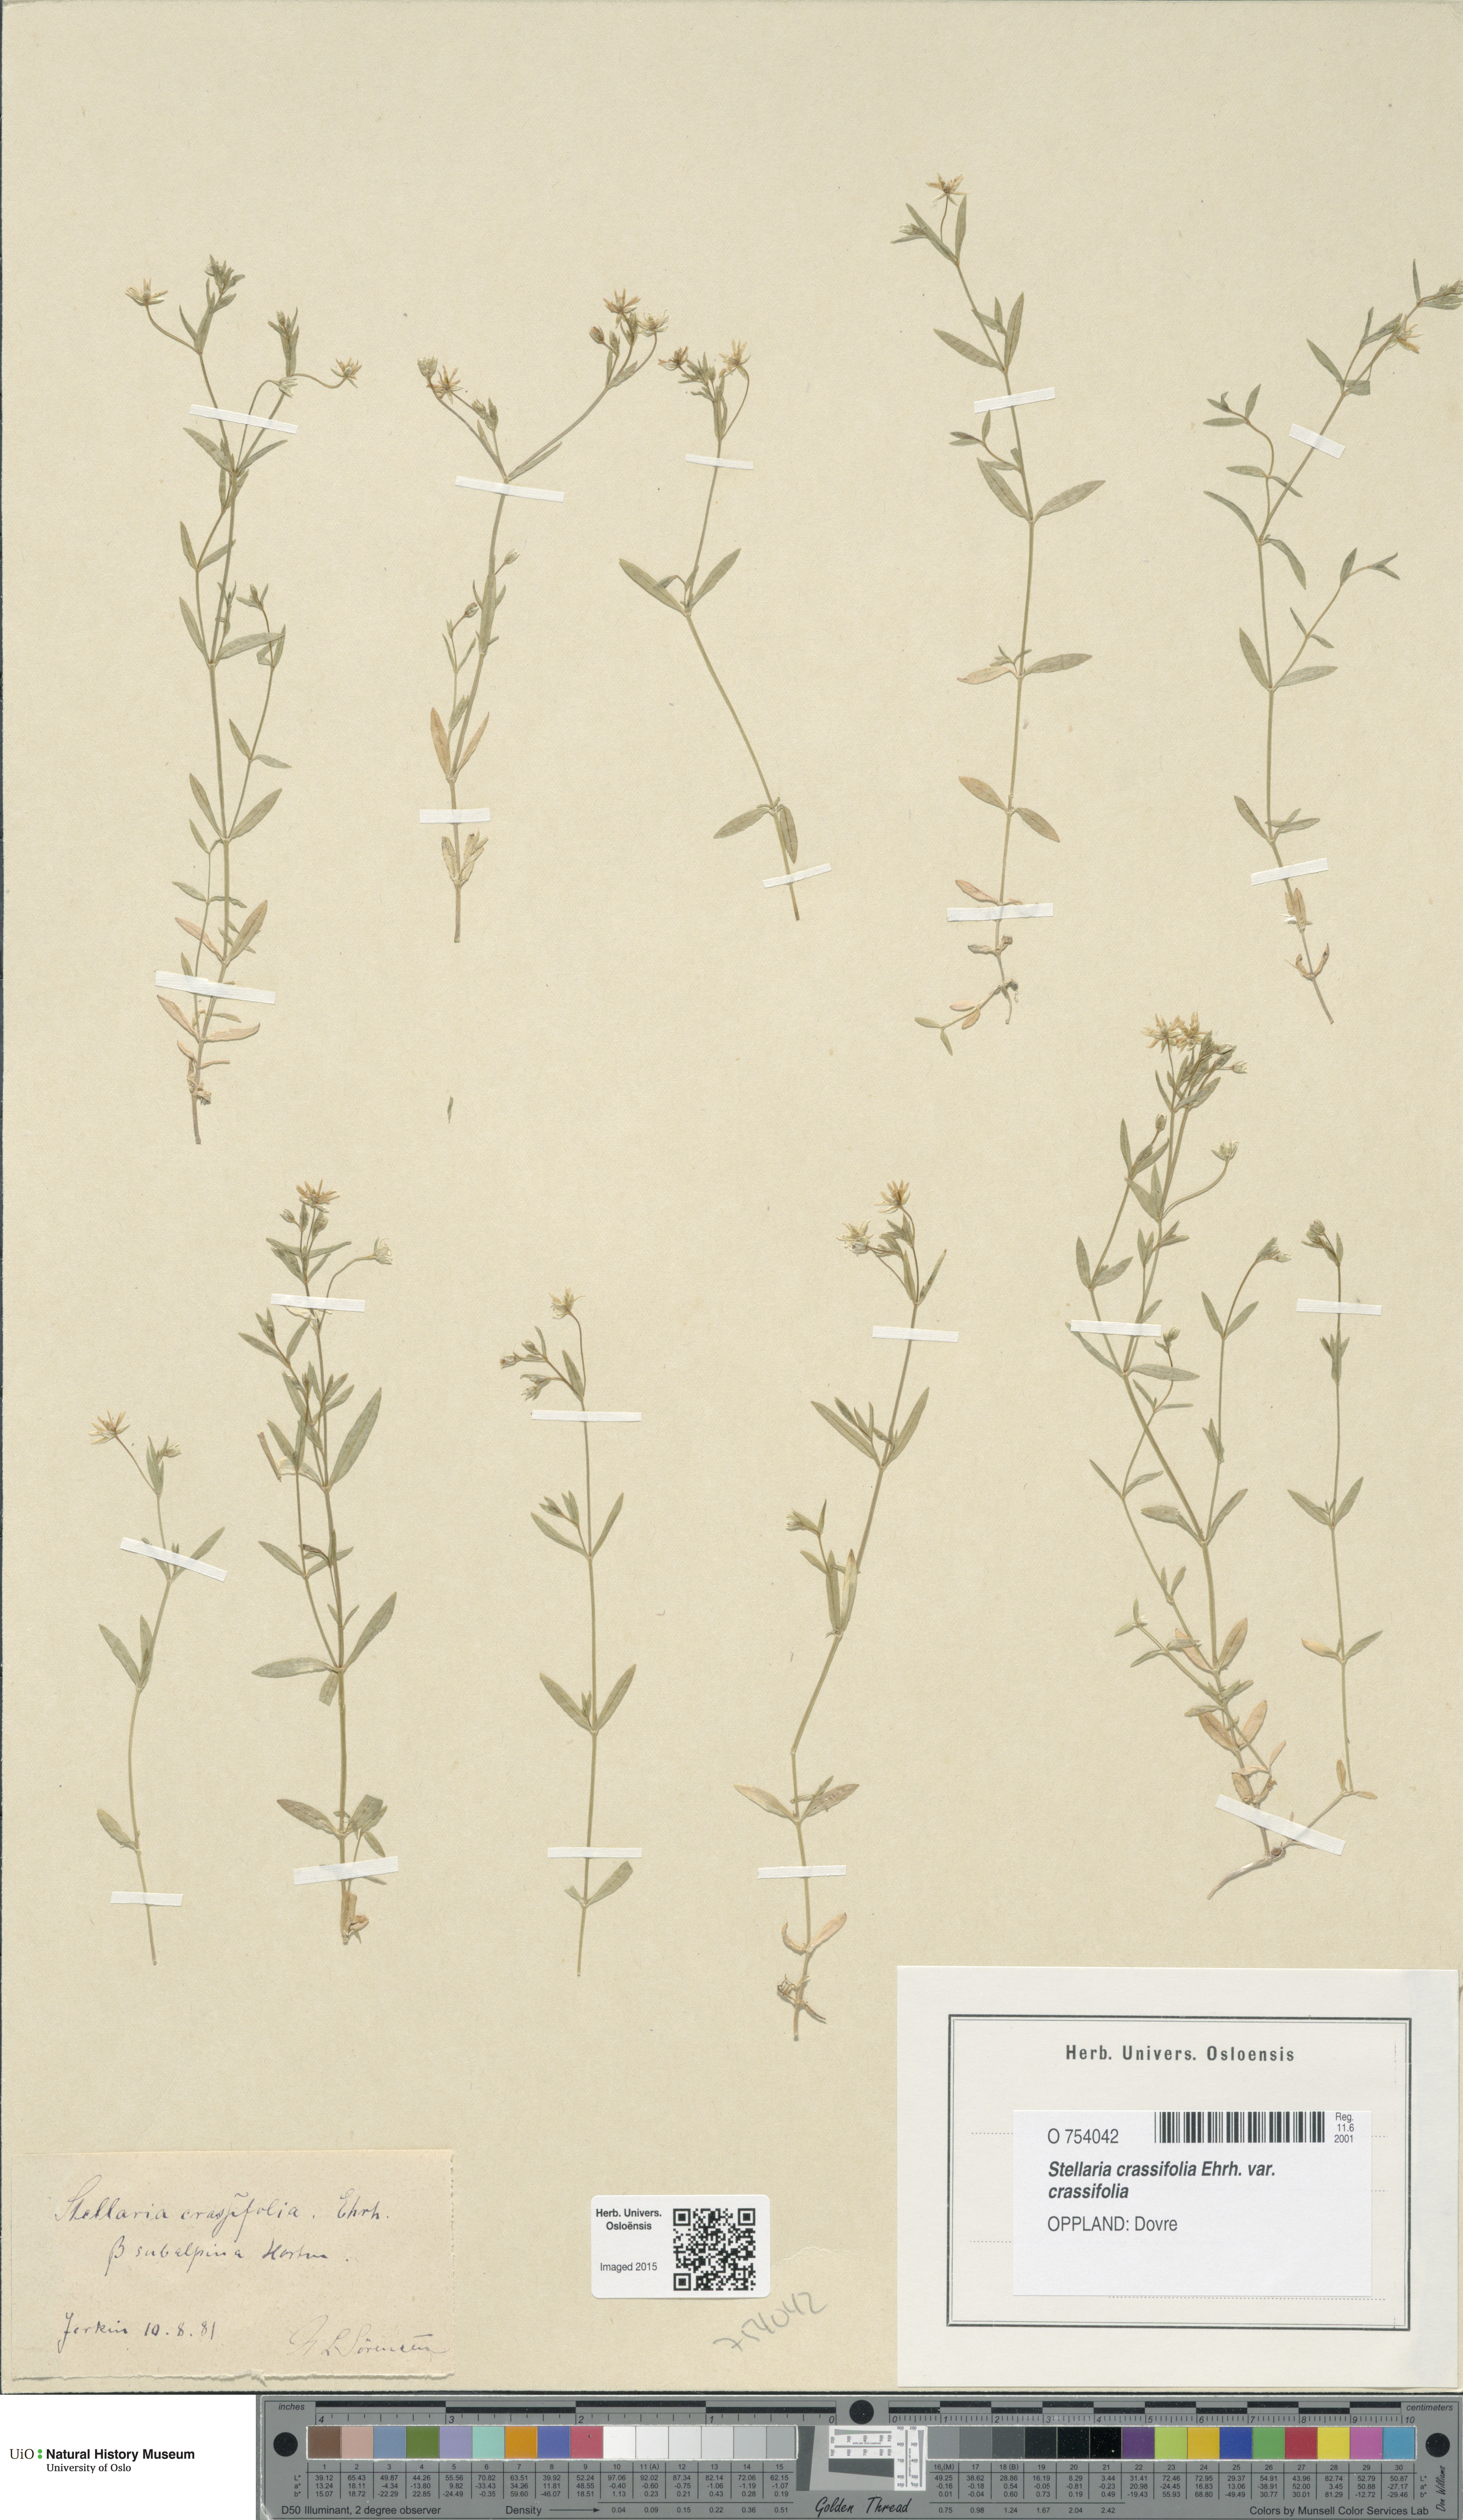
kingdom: Plantae
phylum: Tracheophyta
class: Magnoliopsida
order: Caryophyllales
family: Caryophyllaceae
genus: Stellaria
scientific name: Stellaria crassifolia
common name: Fleshy starwort
